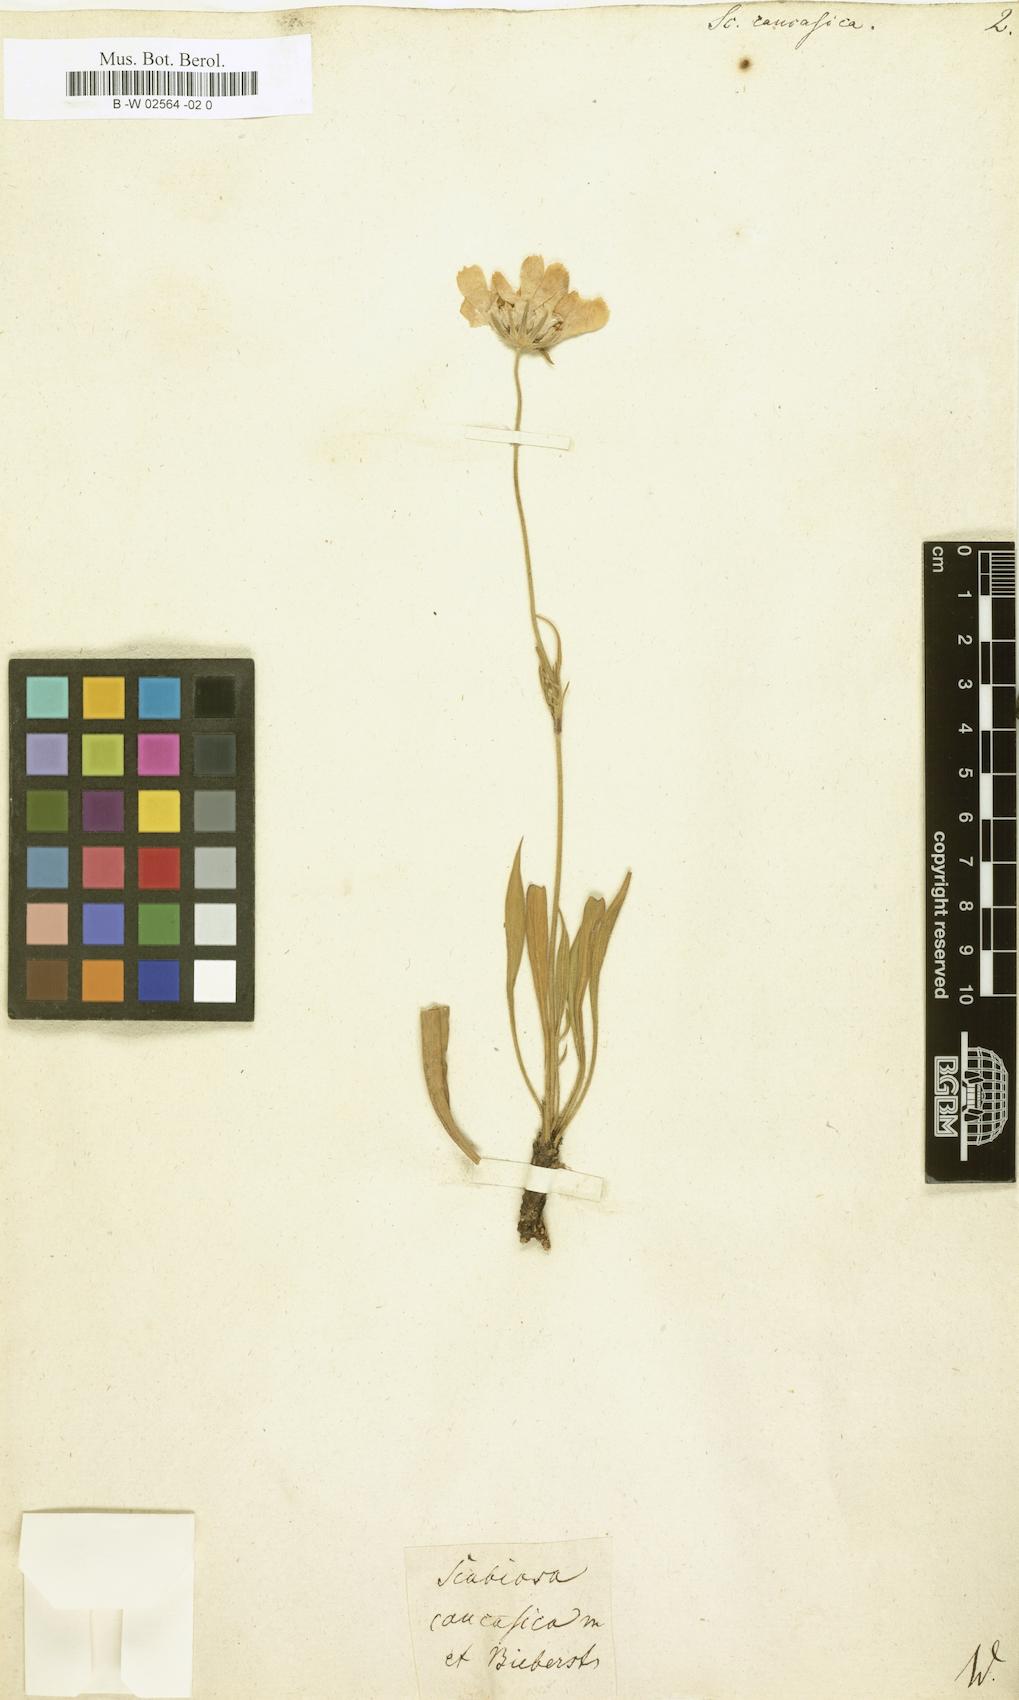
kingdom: Plantae
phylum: Tracheophyta
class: Magnoliopsida
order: Dipsacales
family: Caprifoliaceae
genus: Lomelosia
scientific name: Lomelosia caucasica
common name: Pincushion-flower
